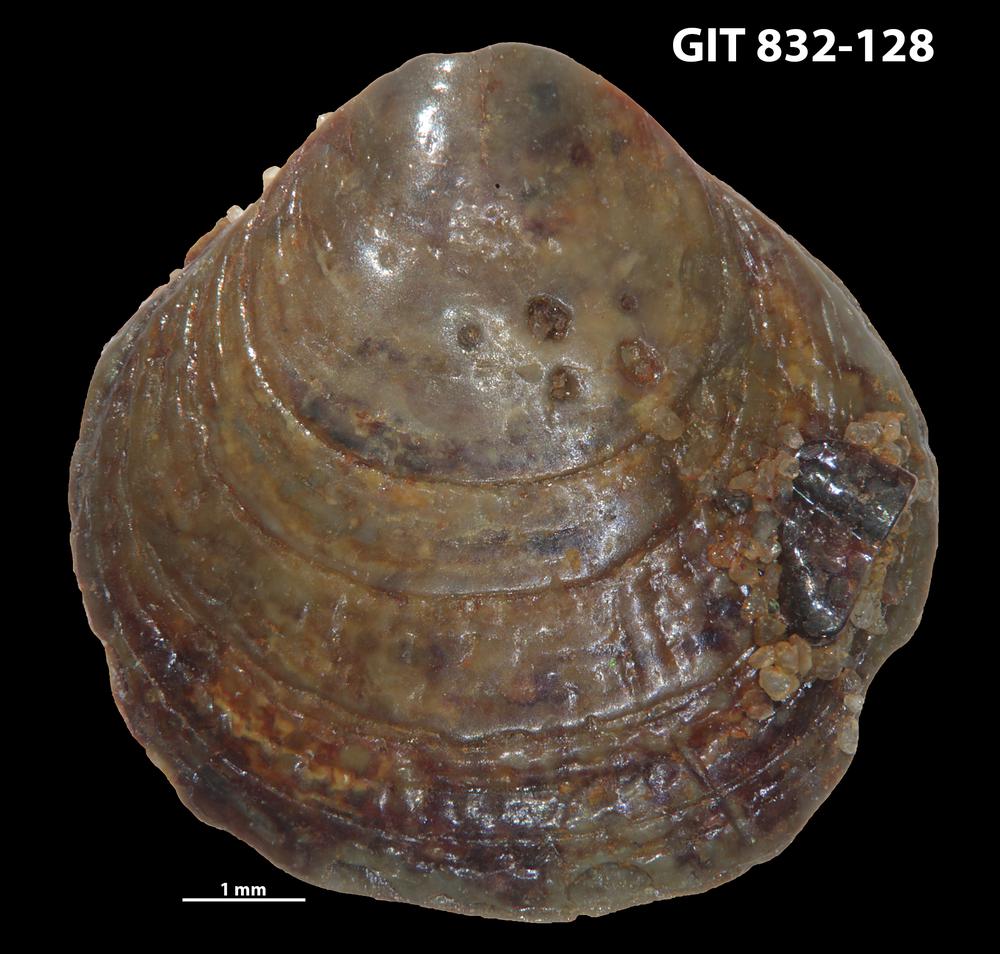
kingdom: Animalia
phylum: Brachiopoda
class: Lingulata
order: Lingulida
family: Obolidae
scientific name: Obolidae
